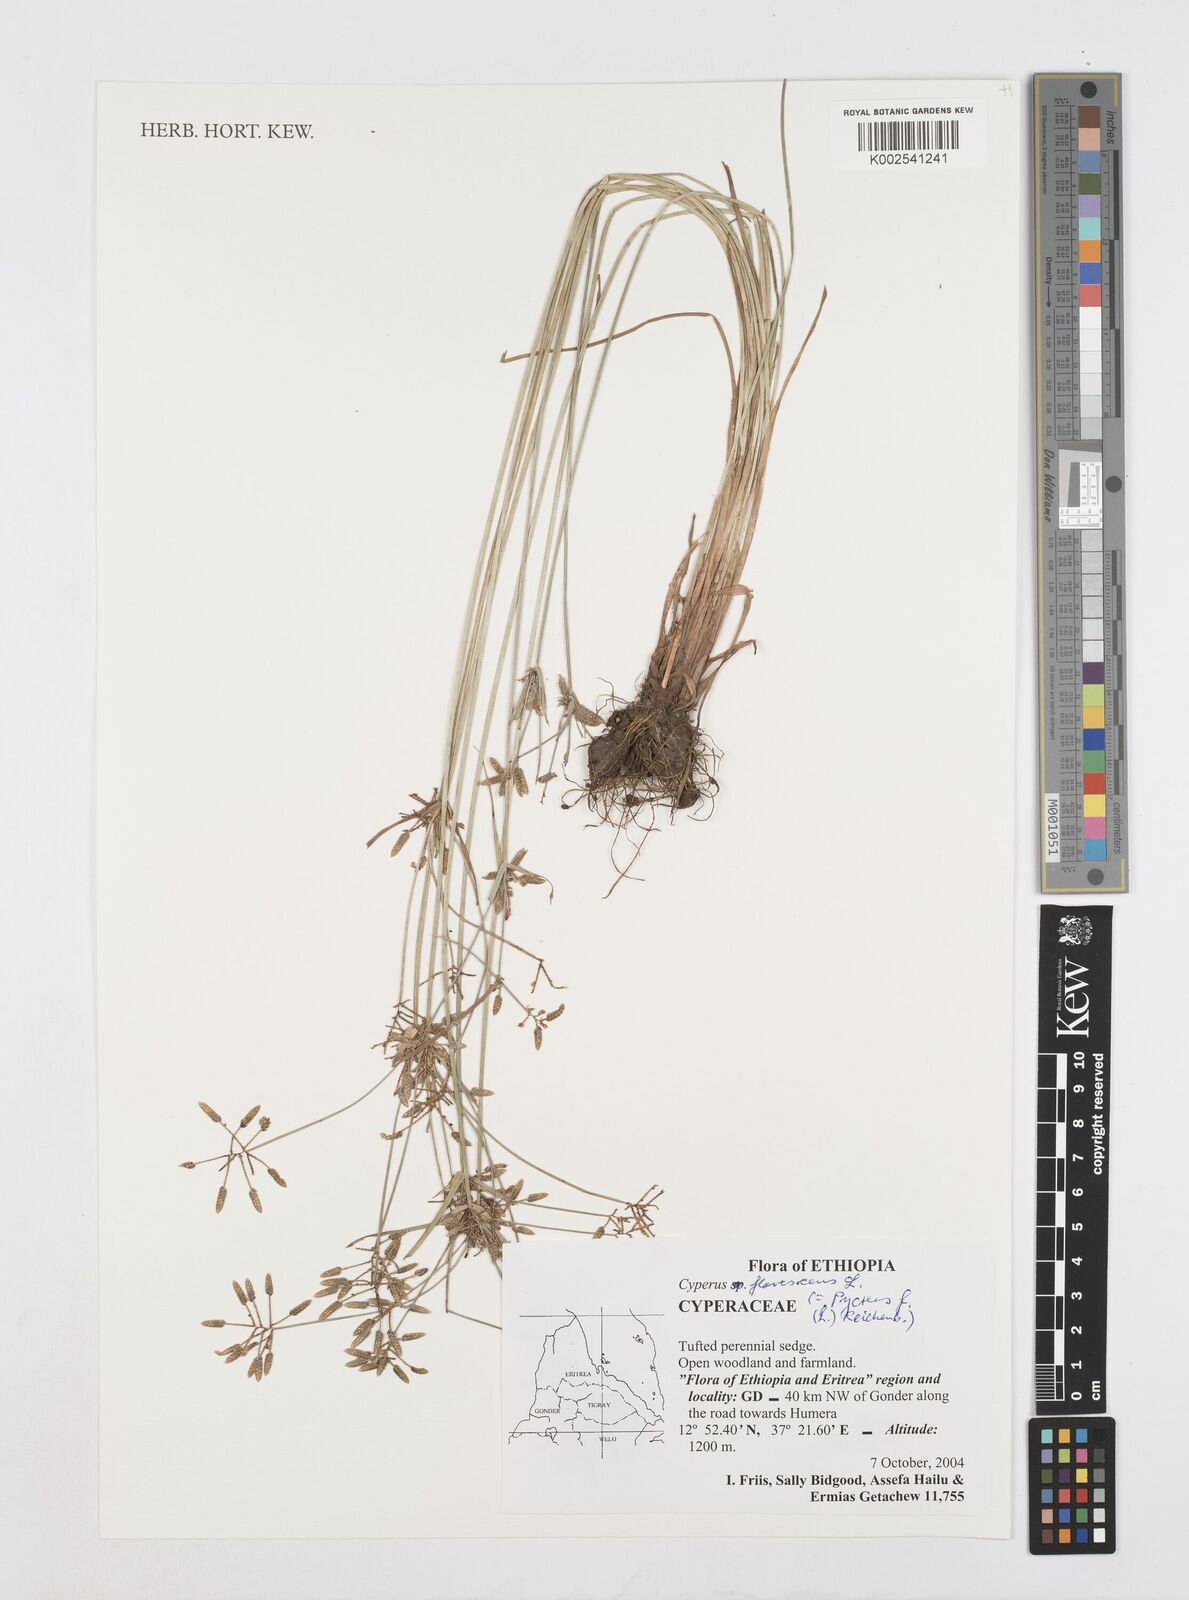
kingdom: Plantae
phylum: Tracheophyta
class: Liliopsida
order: Poales
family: Cyperaceae
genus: Cyperus
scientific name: Cyperus flavescens
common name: Yellow galingale
